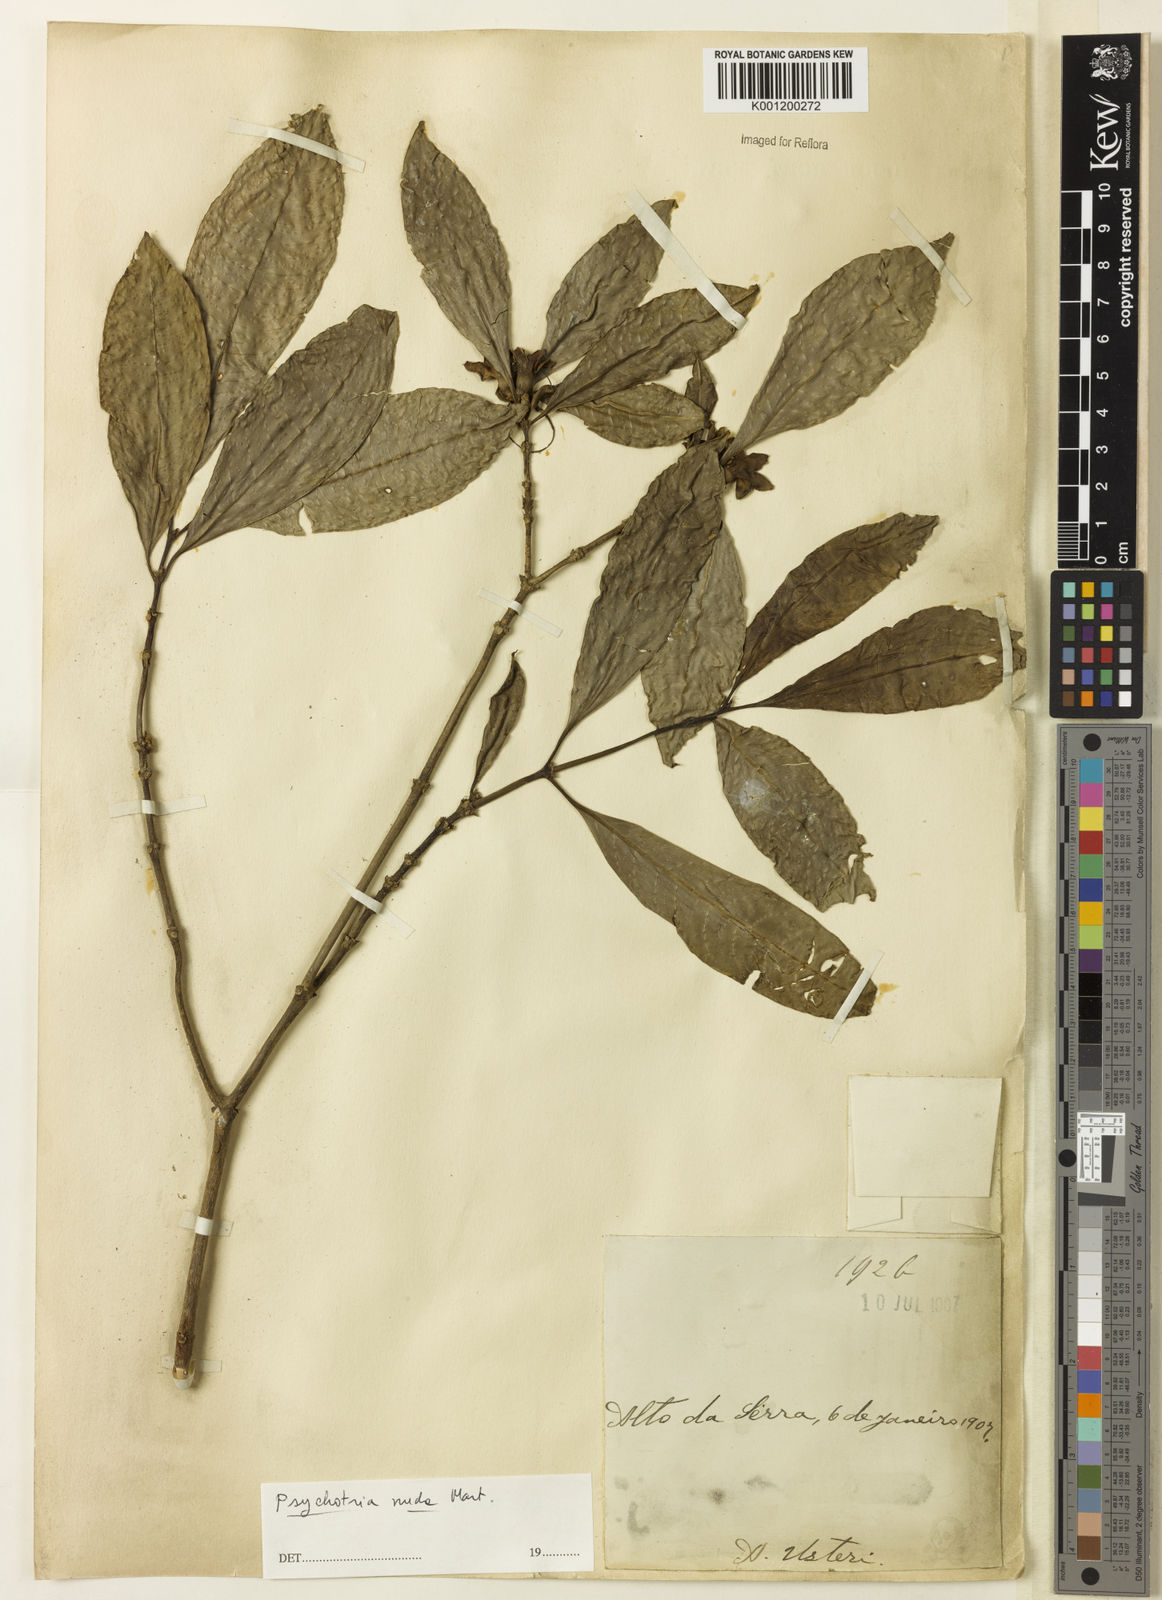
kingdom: Plantae
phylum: Tracheophyta
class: Magnoliopsida
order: Gentianales
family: Rubiaceae
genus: Psychotria
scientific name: Psychotria nuda
